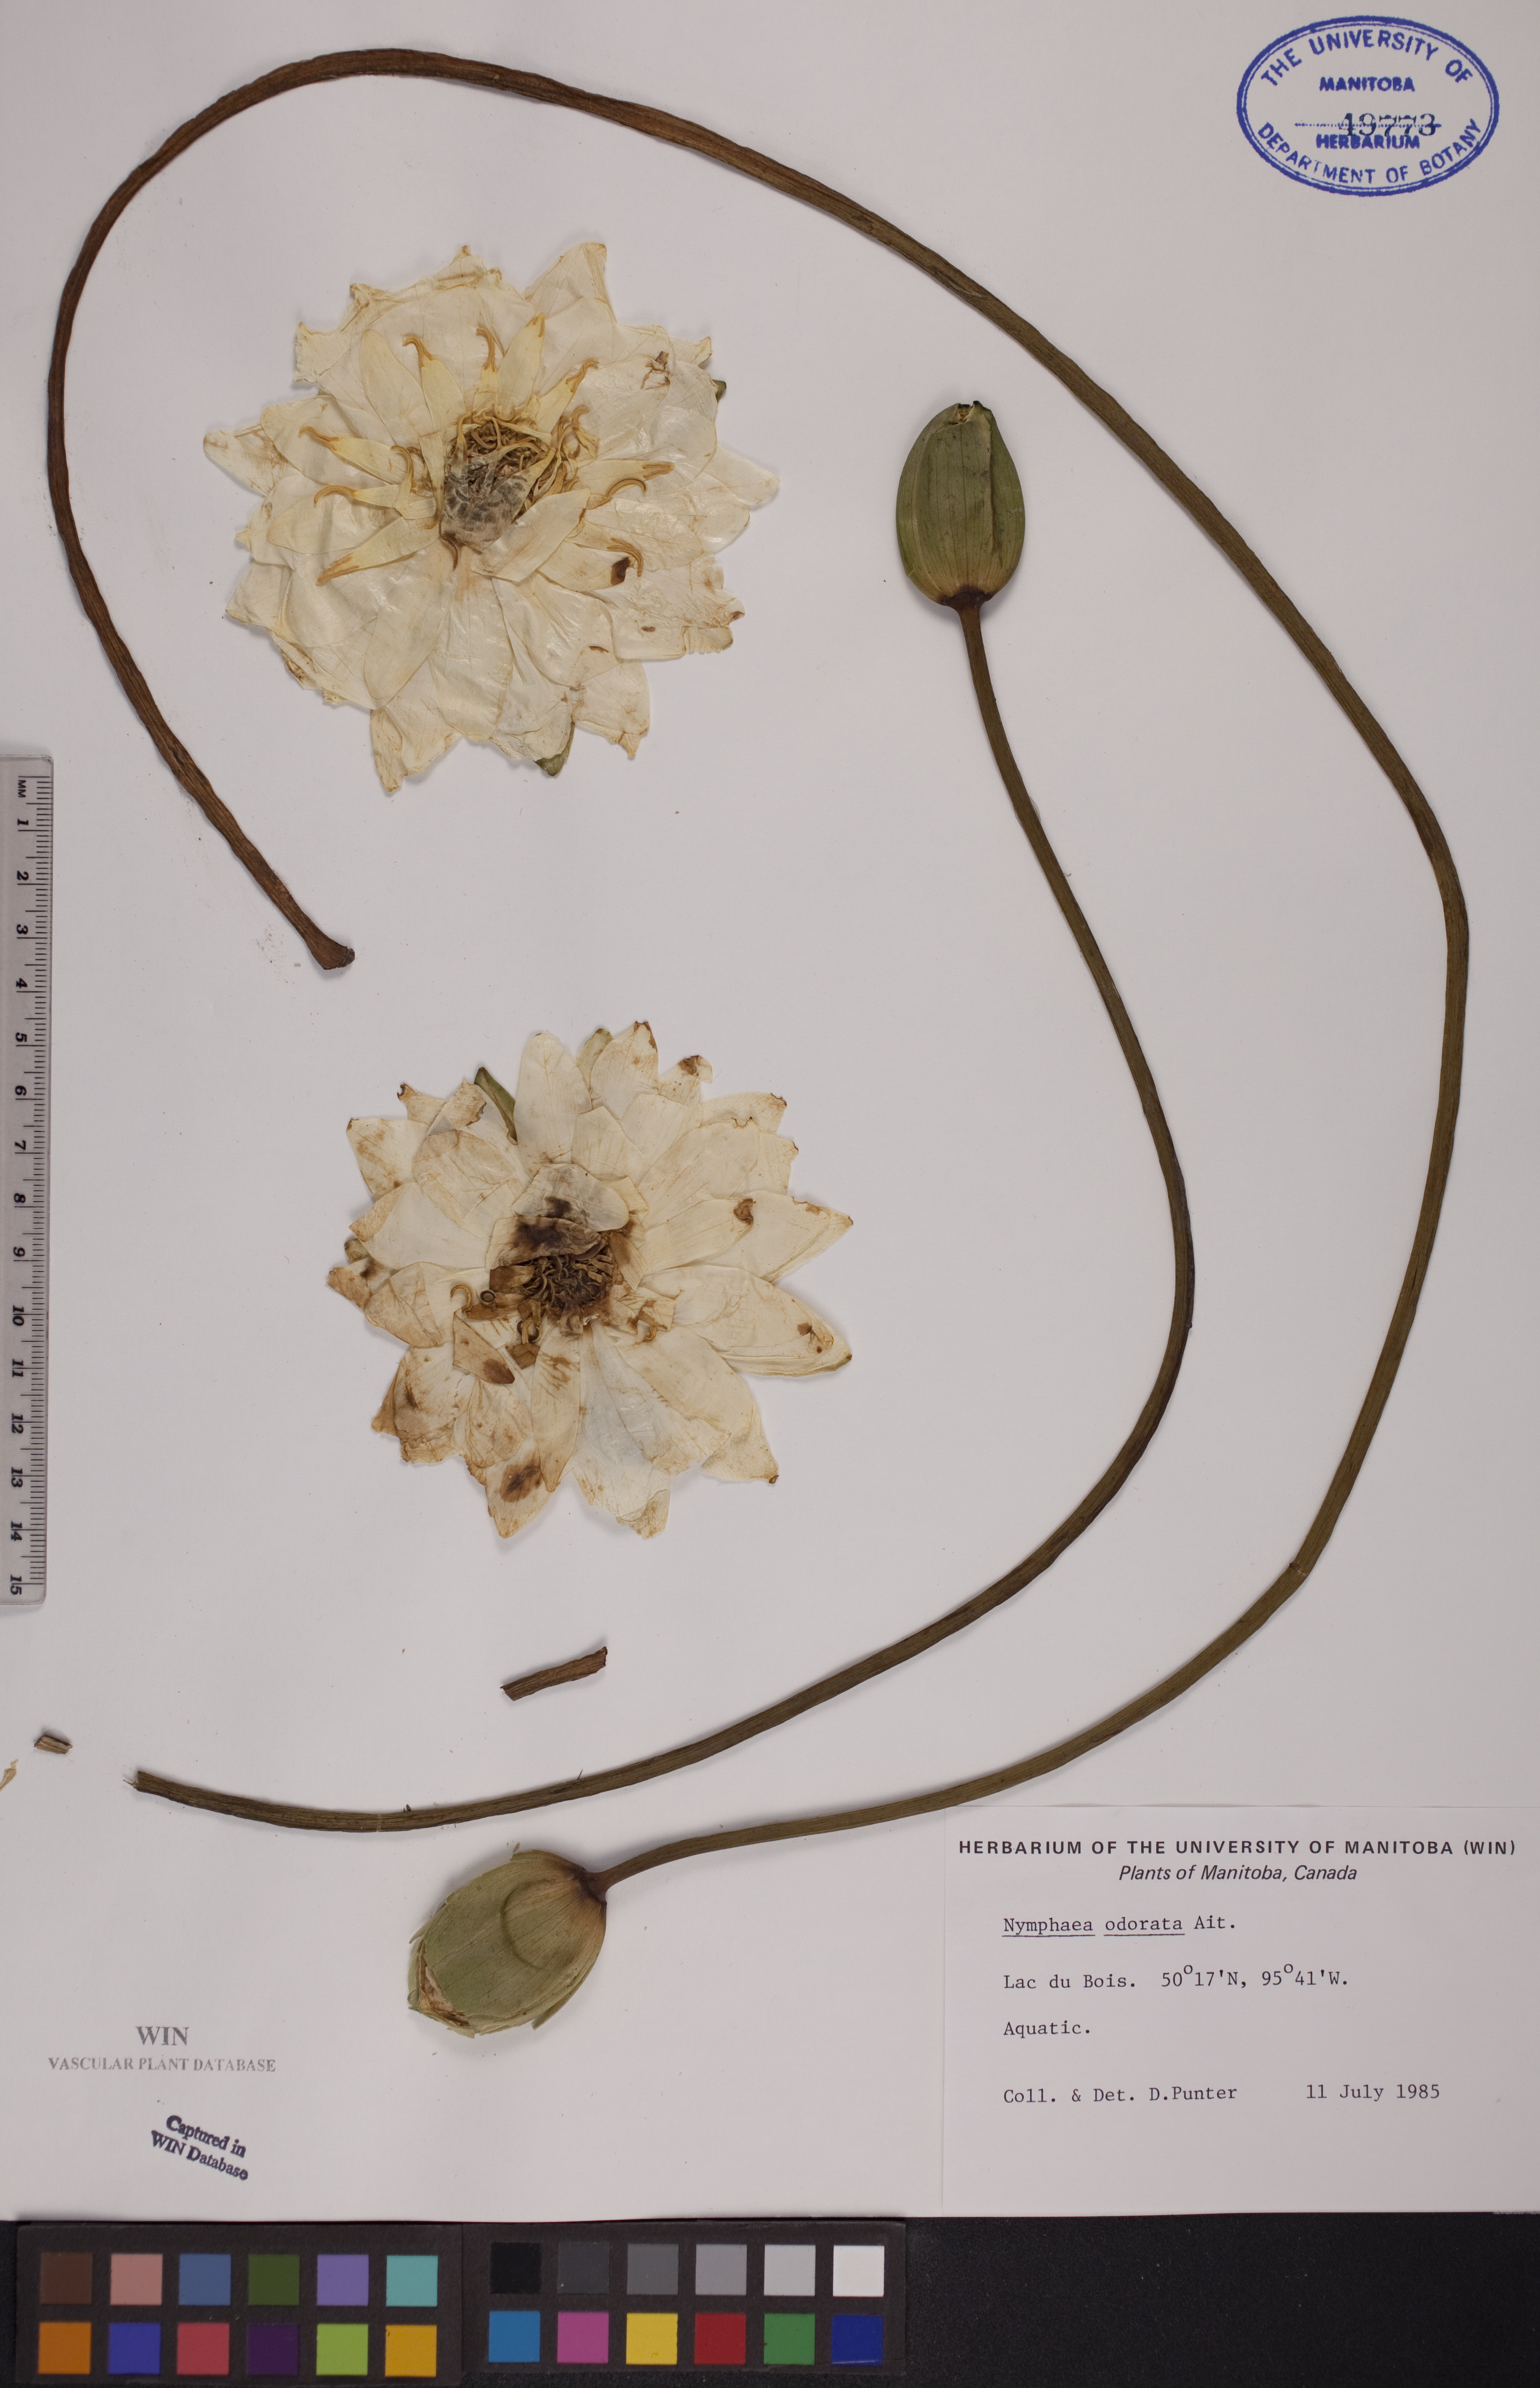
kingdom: Plantae
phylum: Tracheophyta
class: Magnoliopsida
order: Nymphaeales
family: Nymphaeaceae
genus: Nymphaea
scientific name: Nymphaea odorata
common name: Fragrant water-lily
